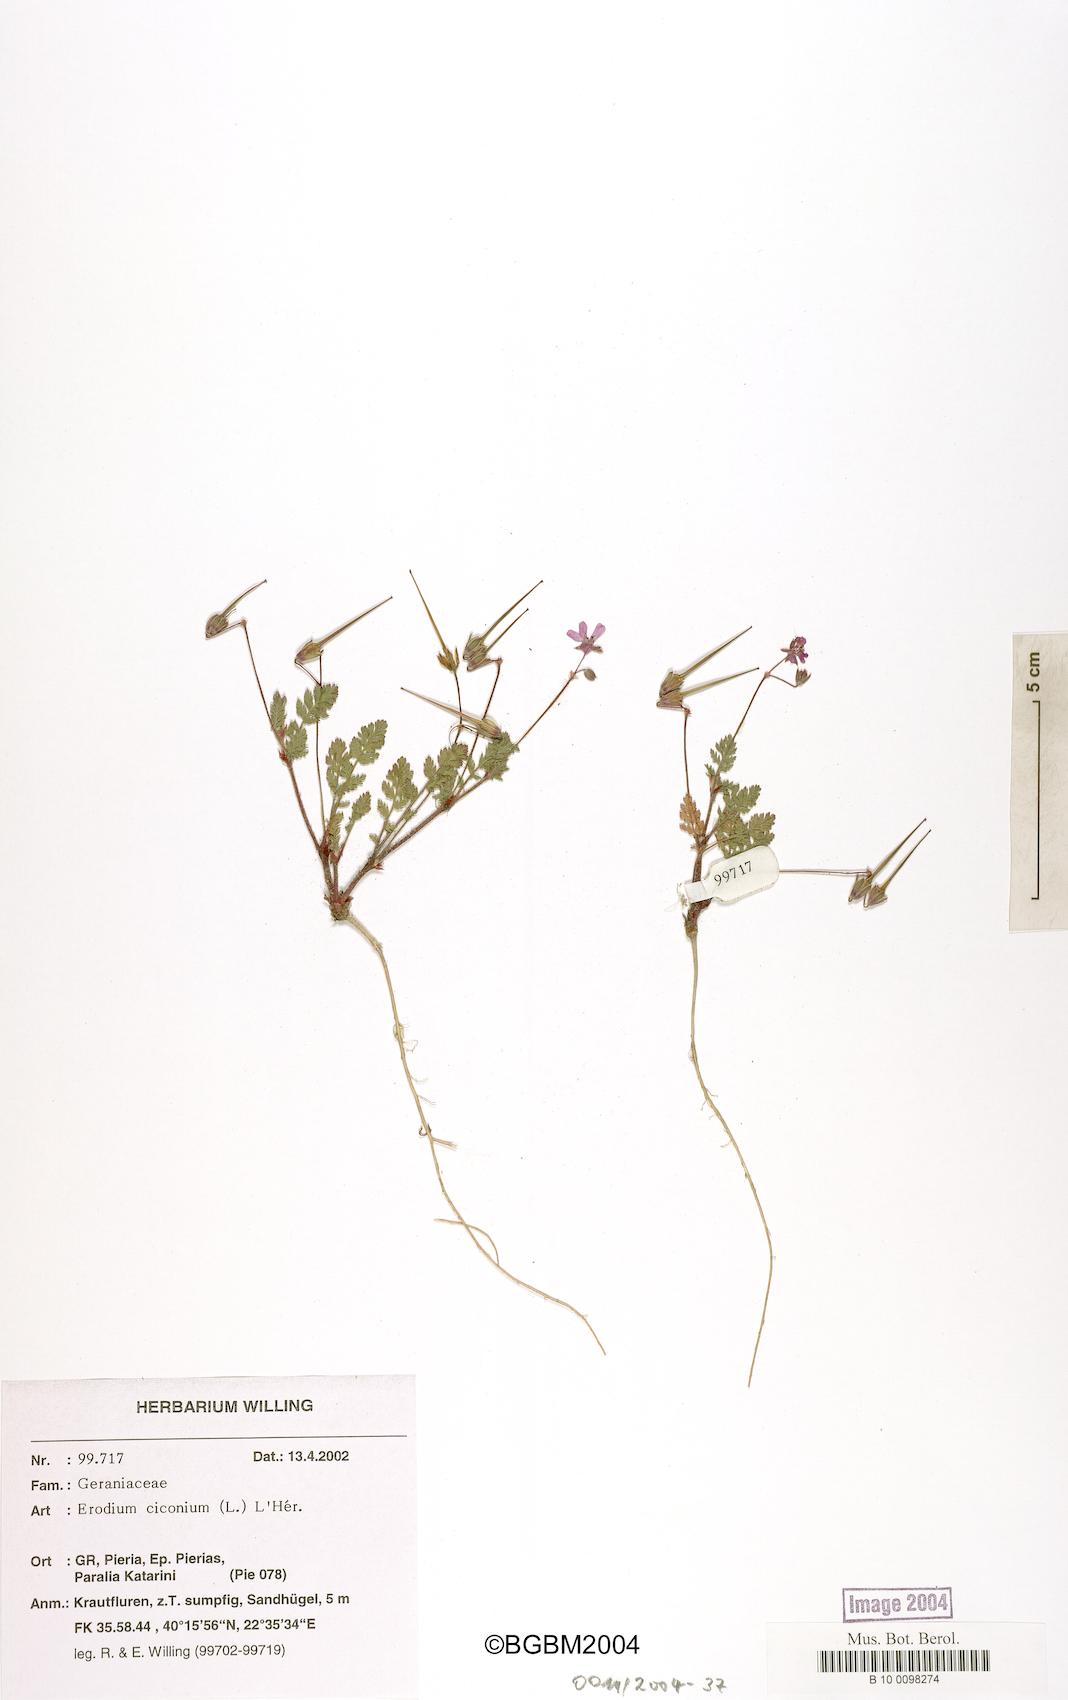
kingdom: Plantae
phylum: Tracheophyta
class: Magnoliopsida
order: Geraniales
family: Geraniaceae
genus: Erodium
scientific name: Erodium ciconium
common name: Common stork's bill
